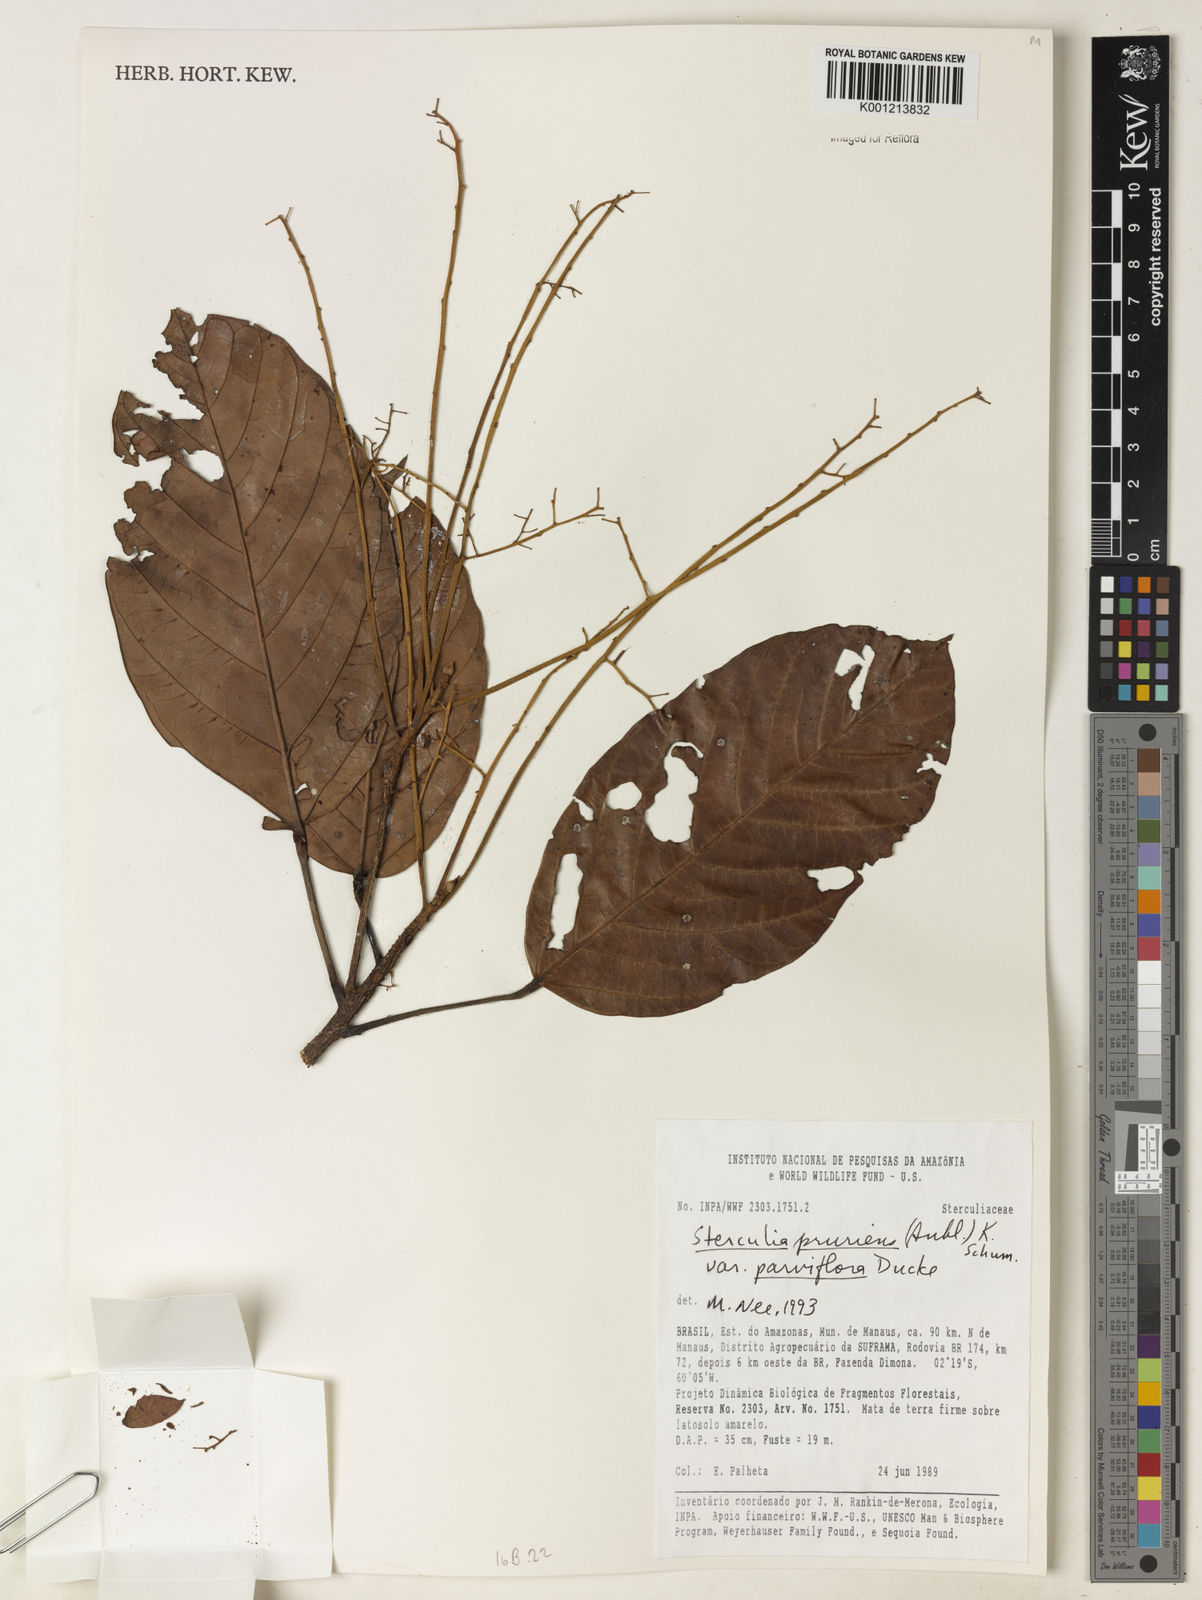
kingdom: Plantae
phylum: Tracheophyta
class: Magnoliopsida
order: Malvales
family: Malvaceae
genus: Sterculia
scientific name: Sterculia pruriens
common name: Grand mahot
